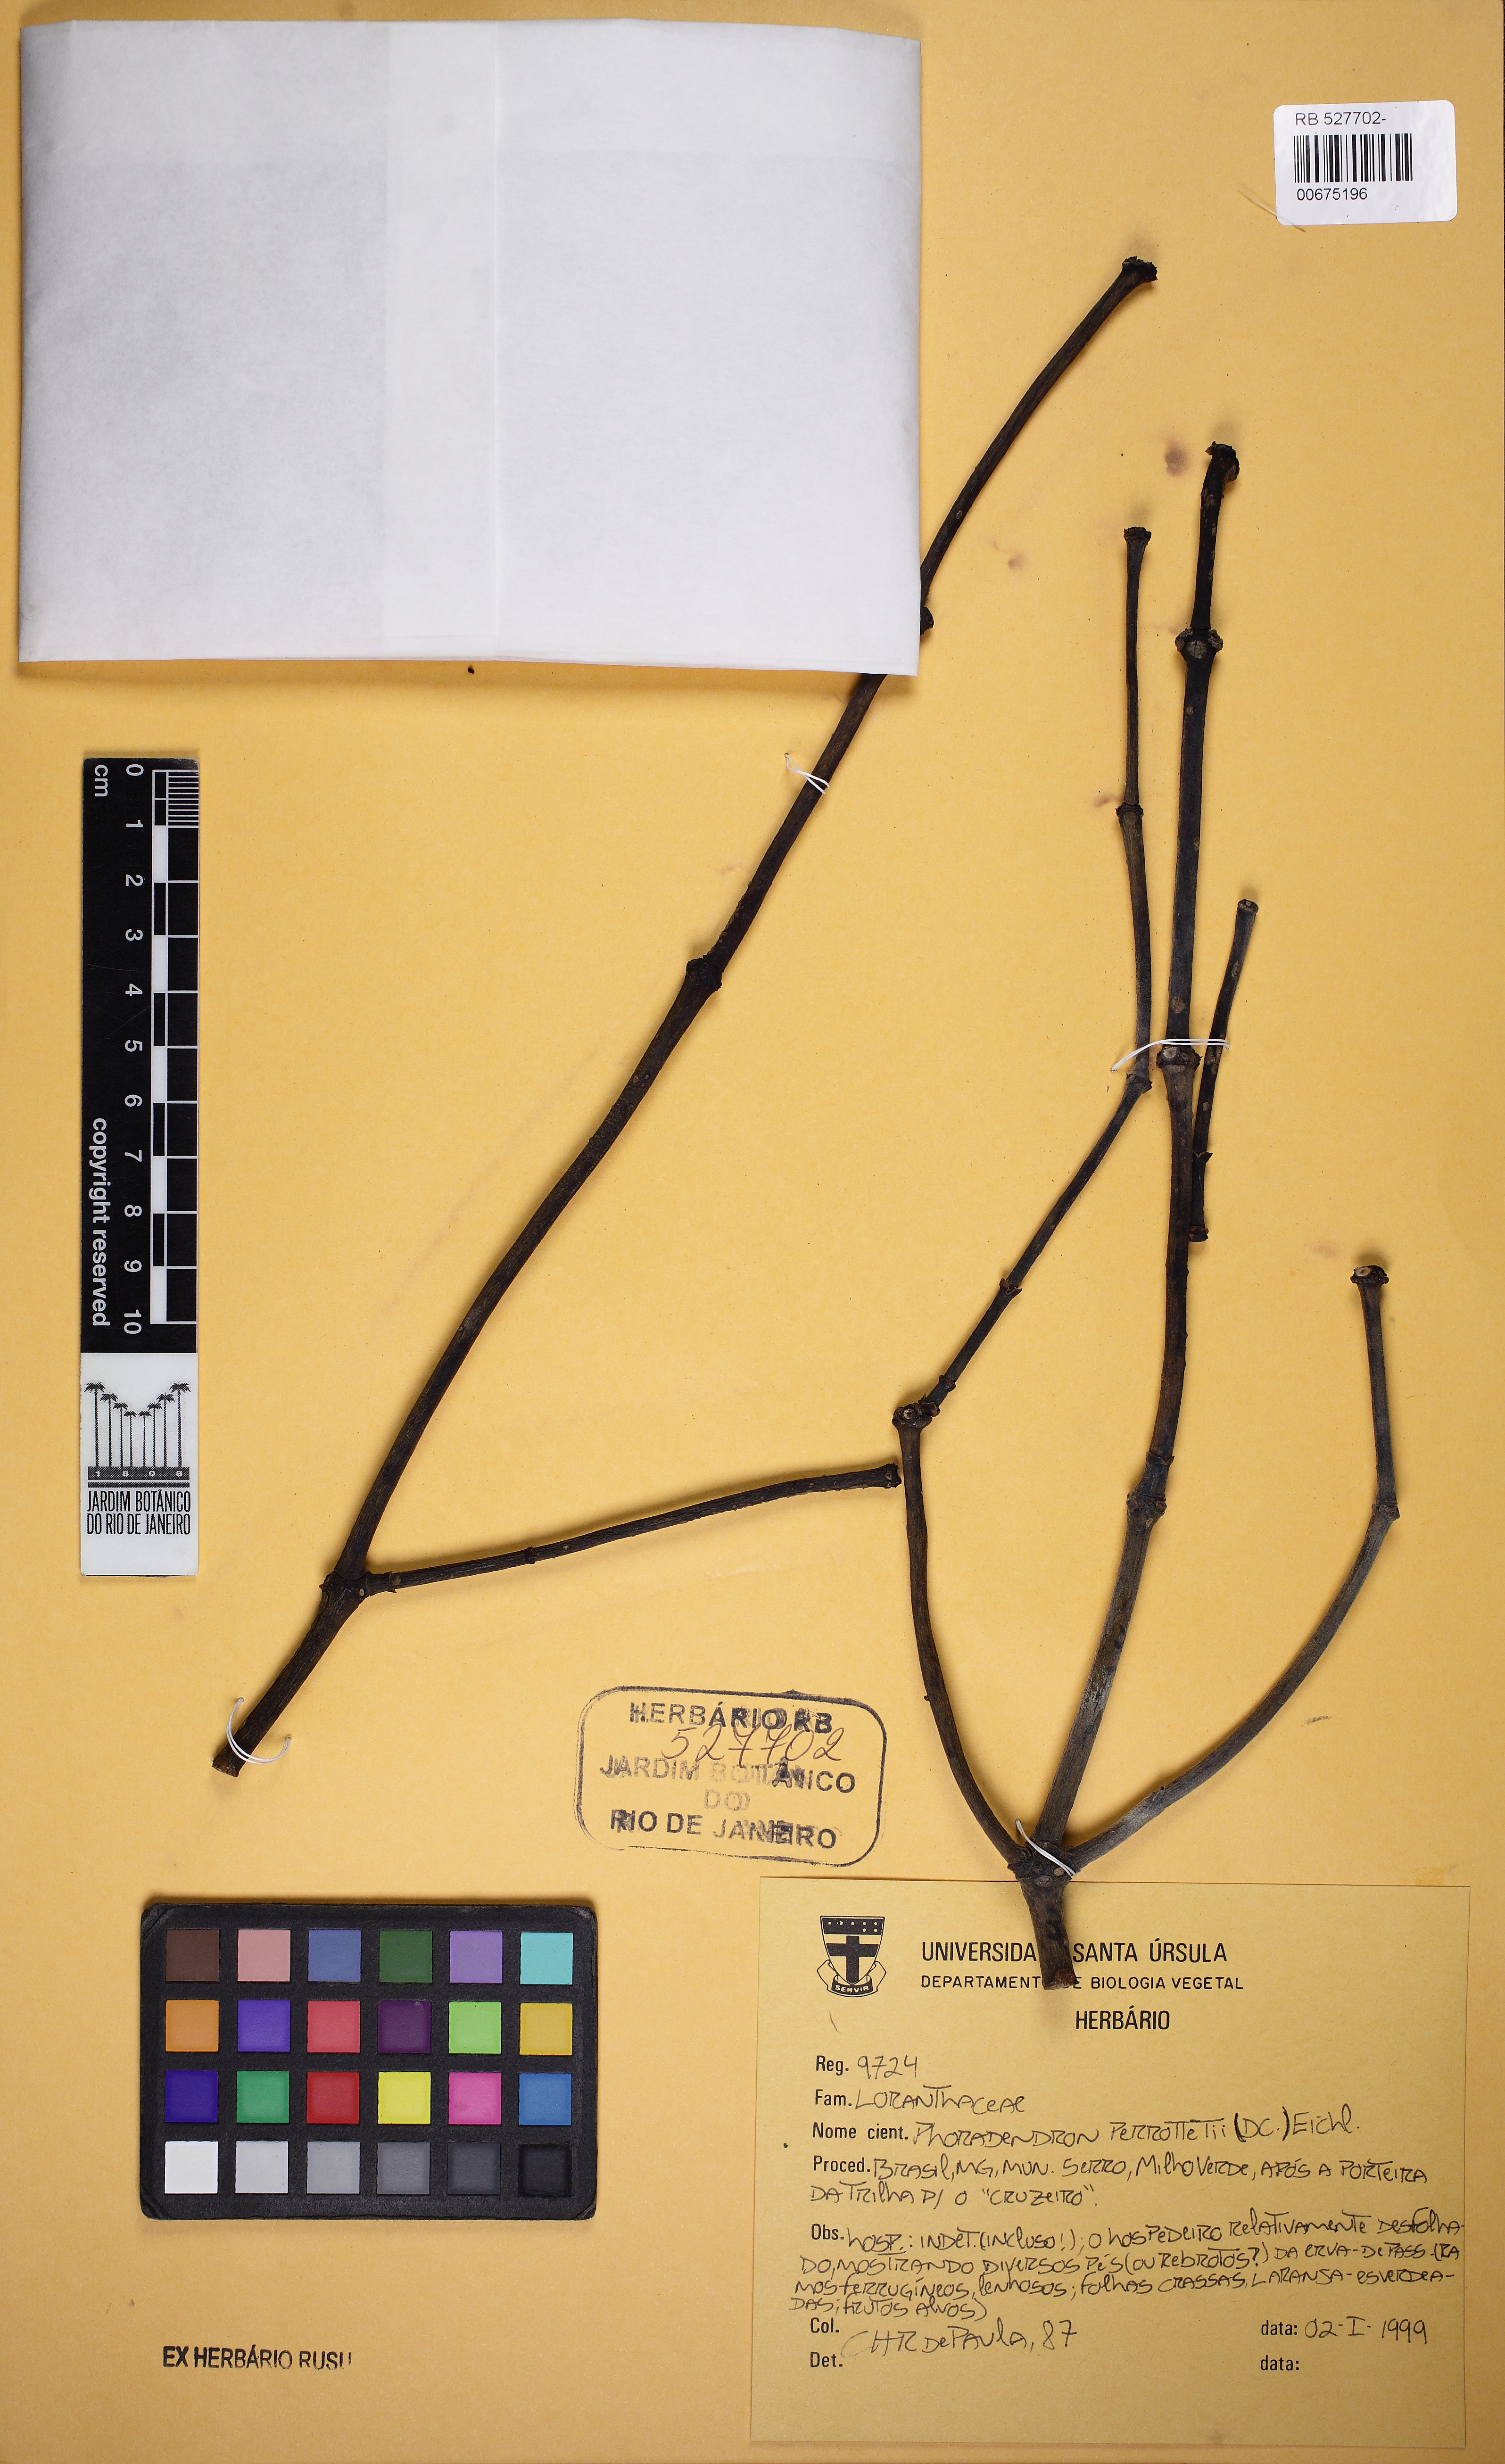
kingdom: Plantae
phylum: Tracheophyta
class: Magnoliopsida
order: Santalales
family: Viscaceae
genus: Phoradendron
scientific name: Phoradendron perrottetii
